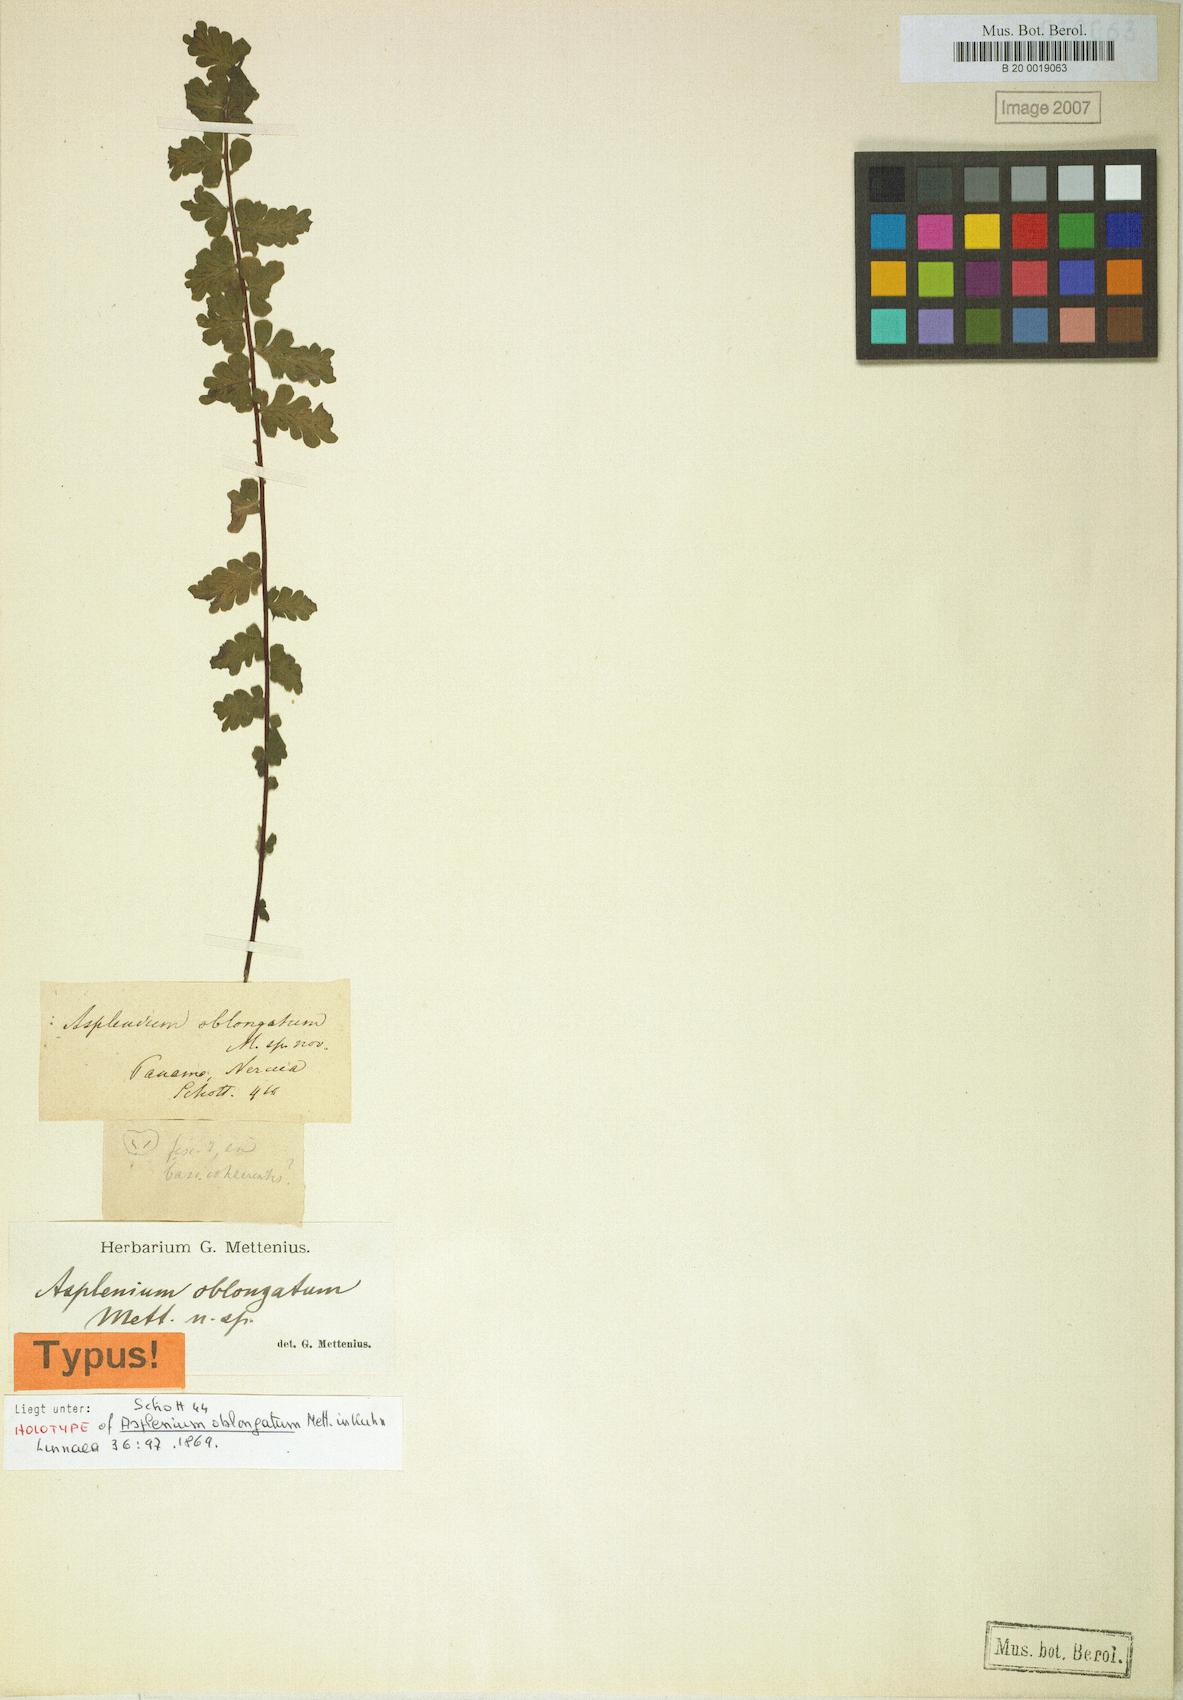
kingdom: Plantae
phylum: Tracheophyta
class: Polypodiopsida
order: Polypodiales
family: Aspleniaceae
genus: Asplenium
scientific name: Asplenium oblongatum
